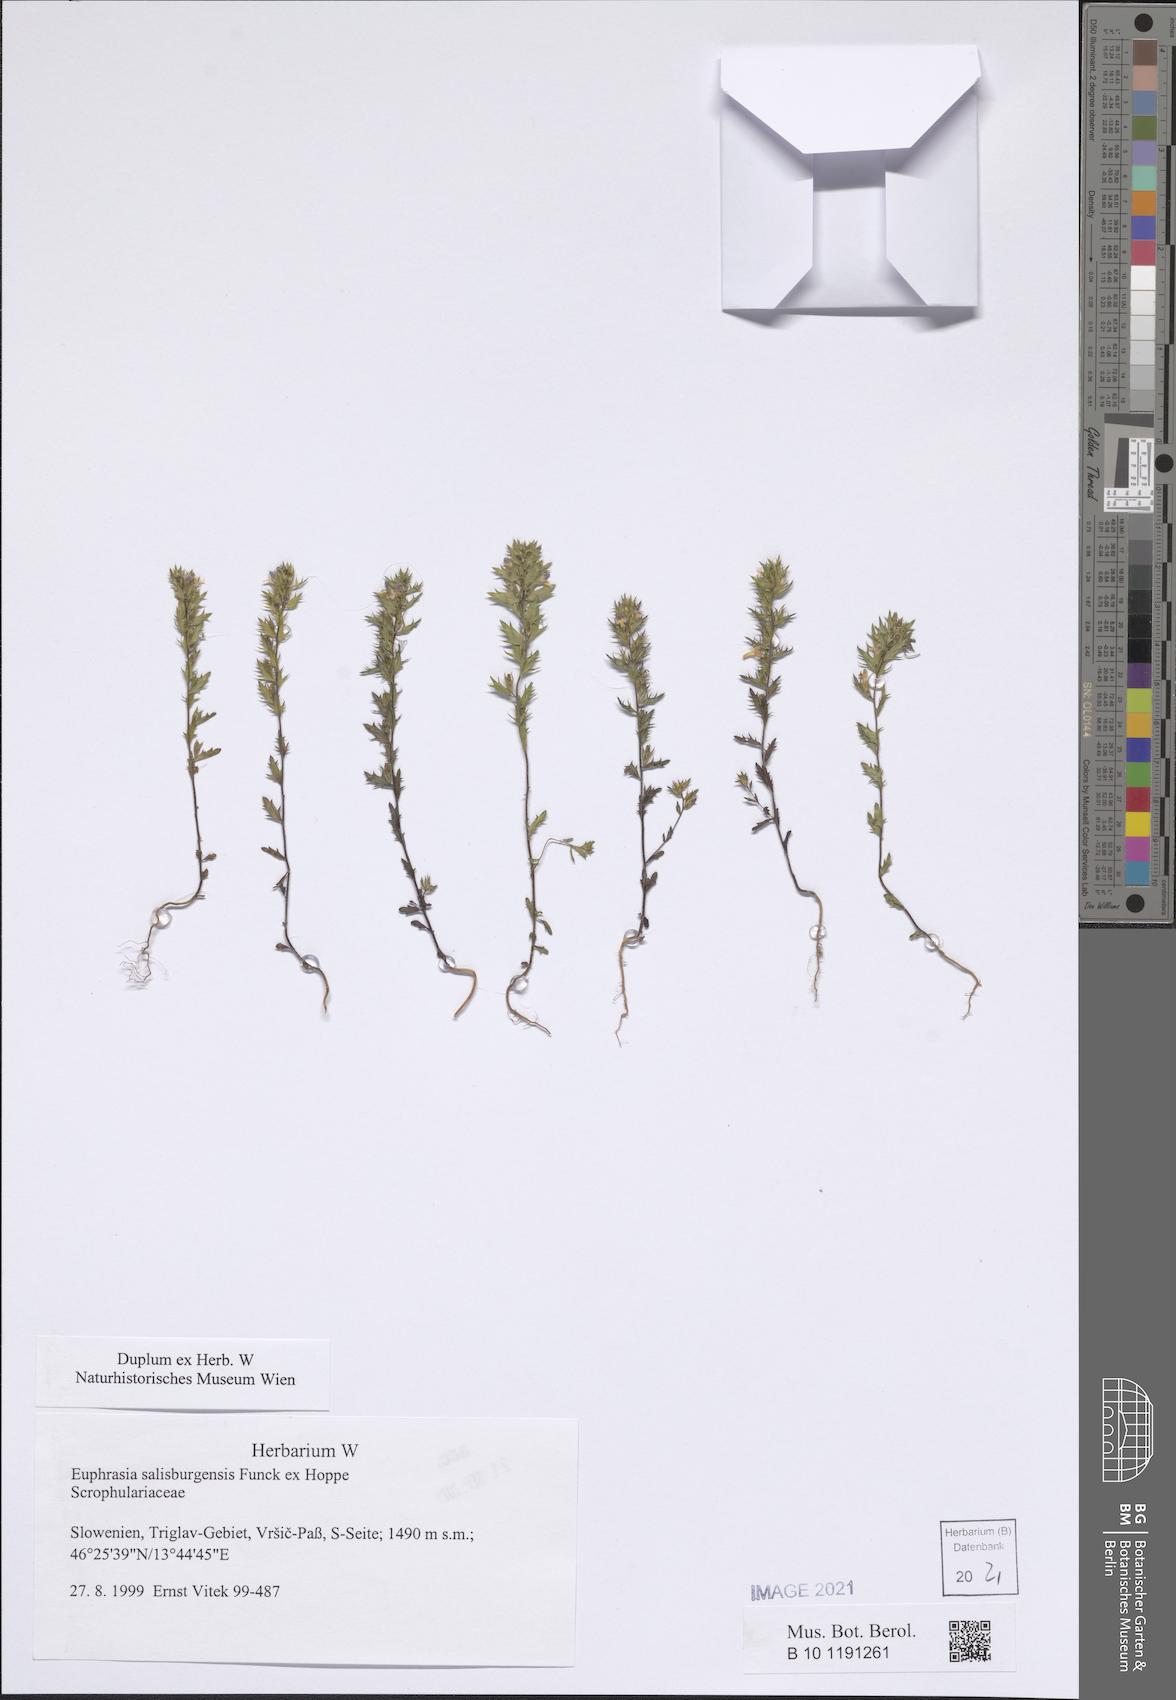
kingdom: Plantae
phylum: Tracheophyta
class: Magnoliopsida
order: Lamiales
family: Orobanchaceae
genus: Euphrasia
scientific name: Euphrasia salisburgensis
